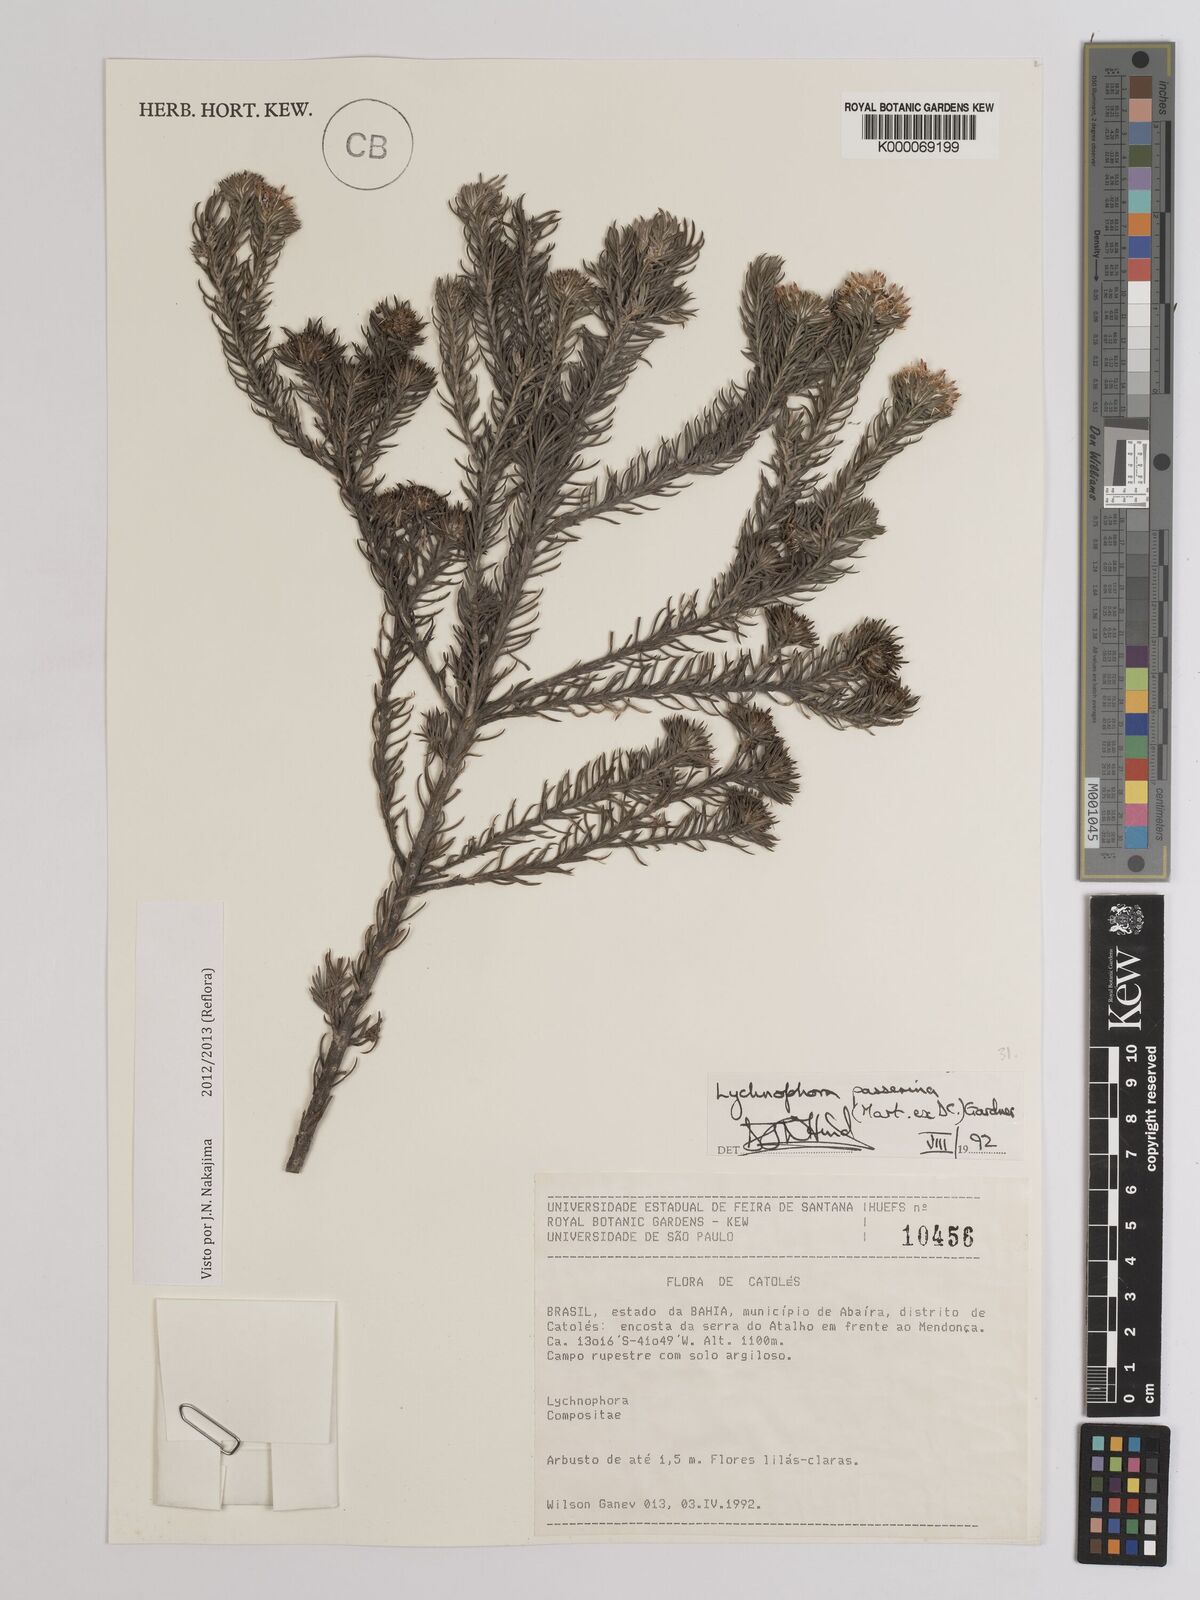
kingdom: Plantae
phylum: Tracheophyta
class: Magnoliopsida
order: Asterales
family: Asteraceae
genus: Lychnophora
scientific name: Lychnophora passerina
